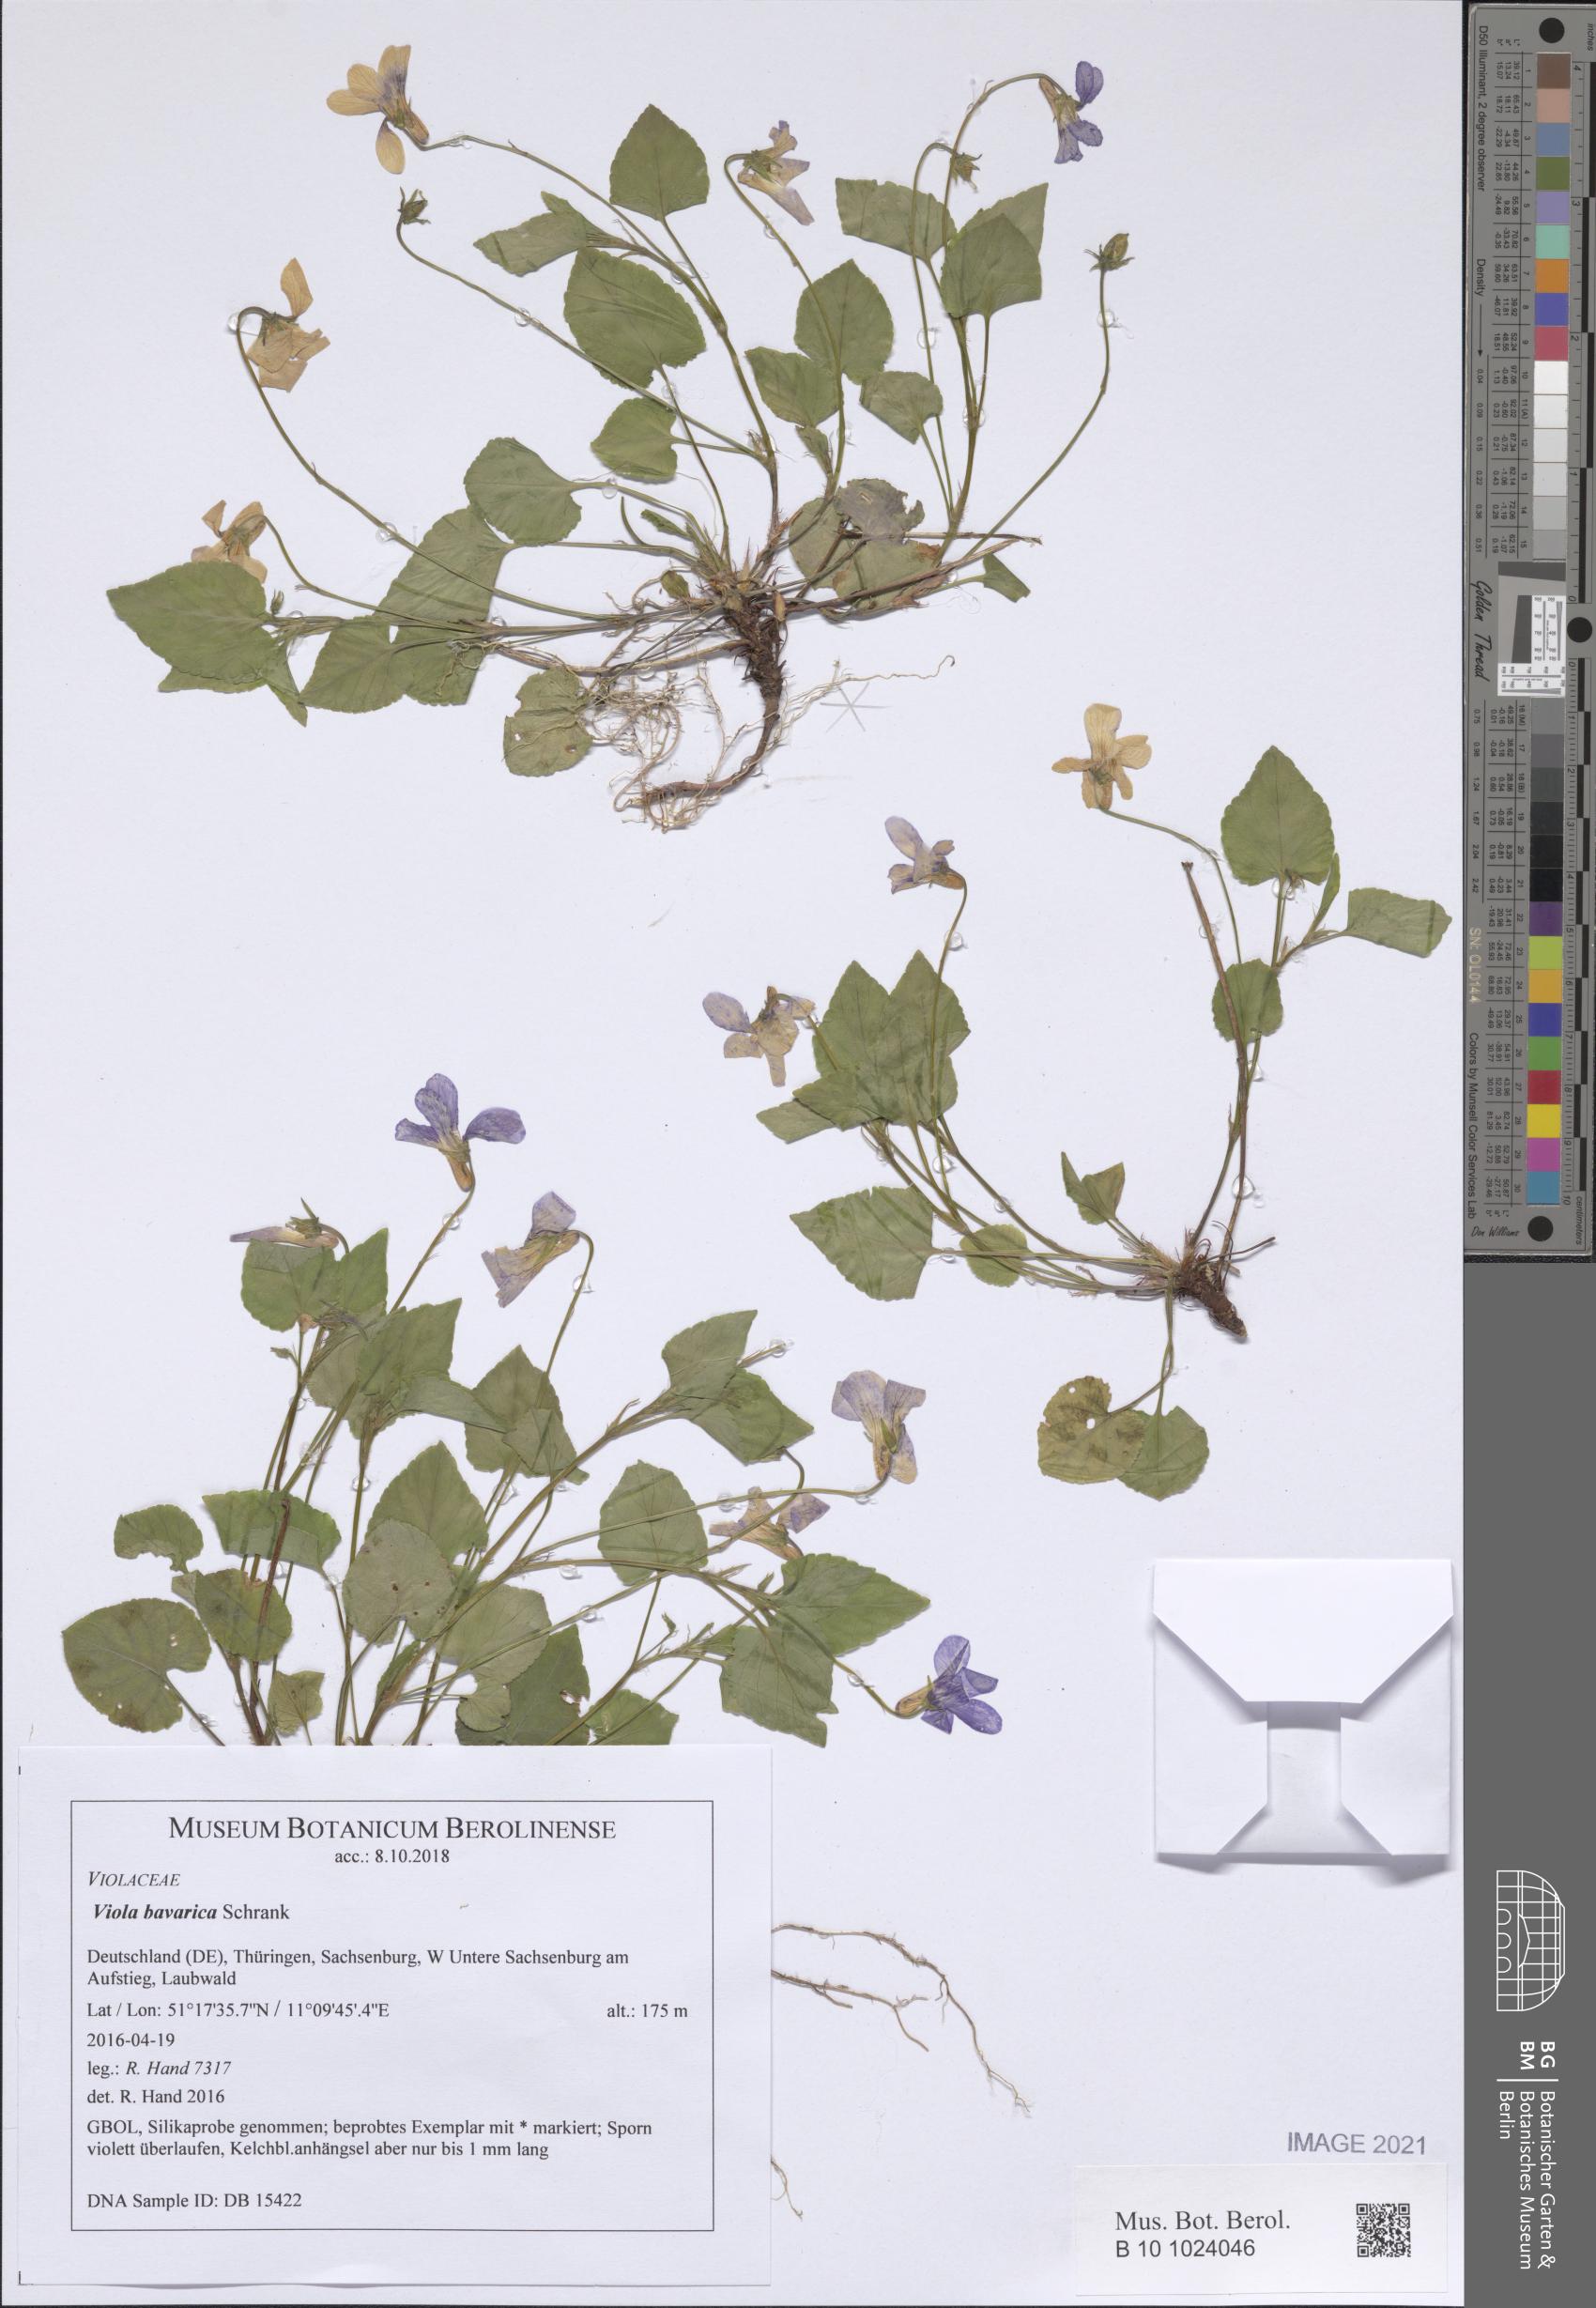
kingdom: Plantae
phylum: Tracheophyta
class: Magnoliopsida
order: Malpighiales
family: Violaceae
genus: Viola
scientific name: Viola bavarica
